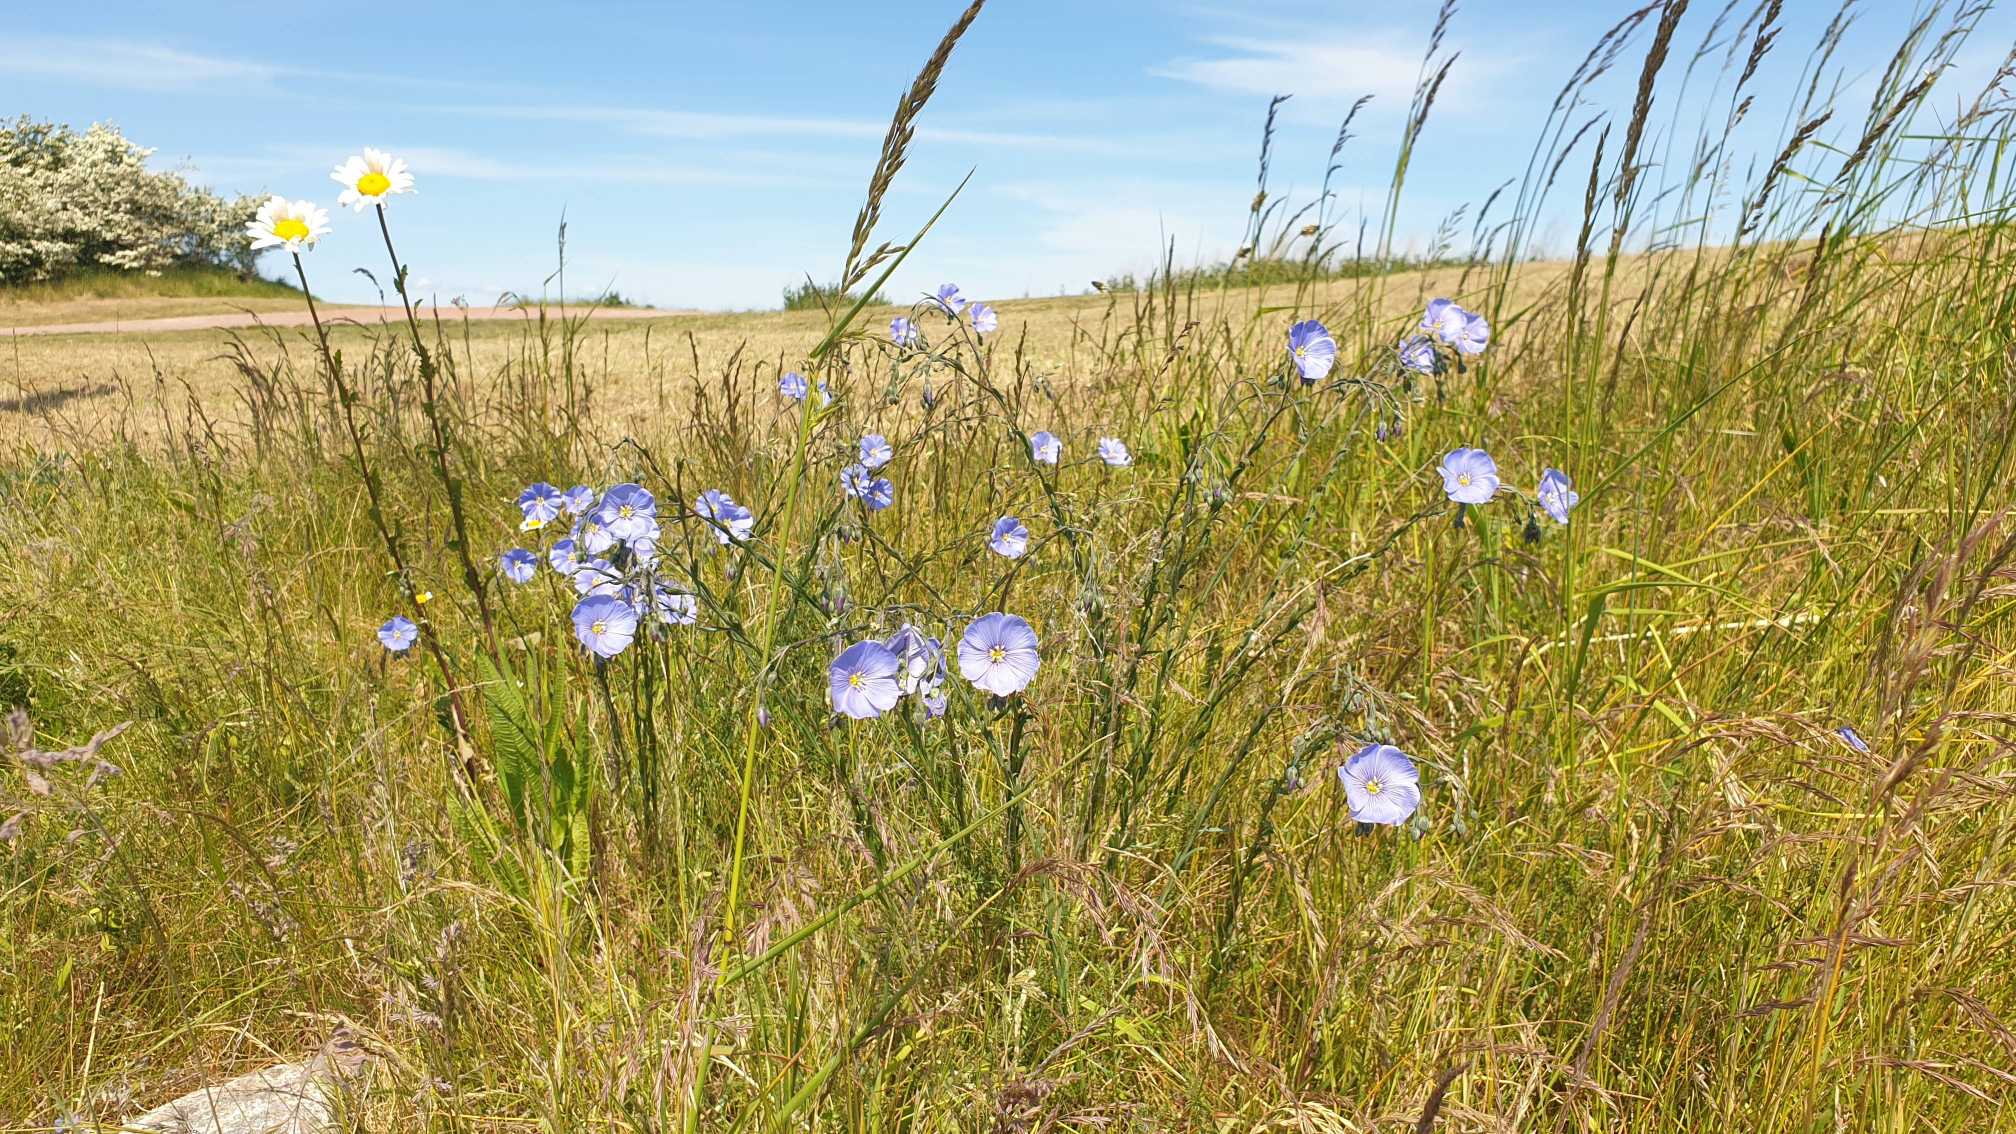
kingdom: Plantae
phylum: Tracheophyta
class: Magnoliopsida
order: Malpighiales
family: Linaceae
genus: Linum
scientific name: Linum austriacum
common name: Østrigsk hør
